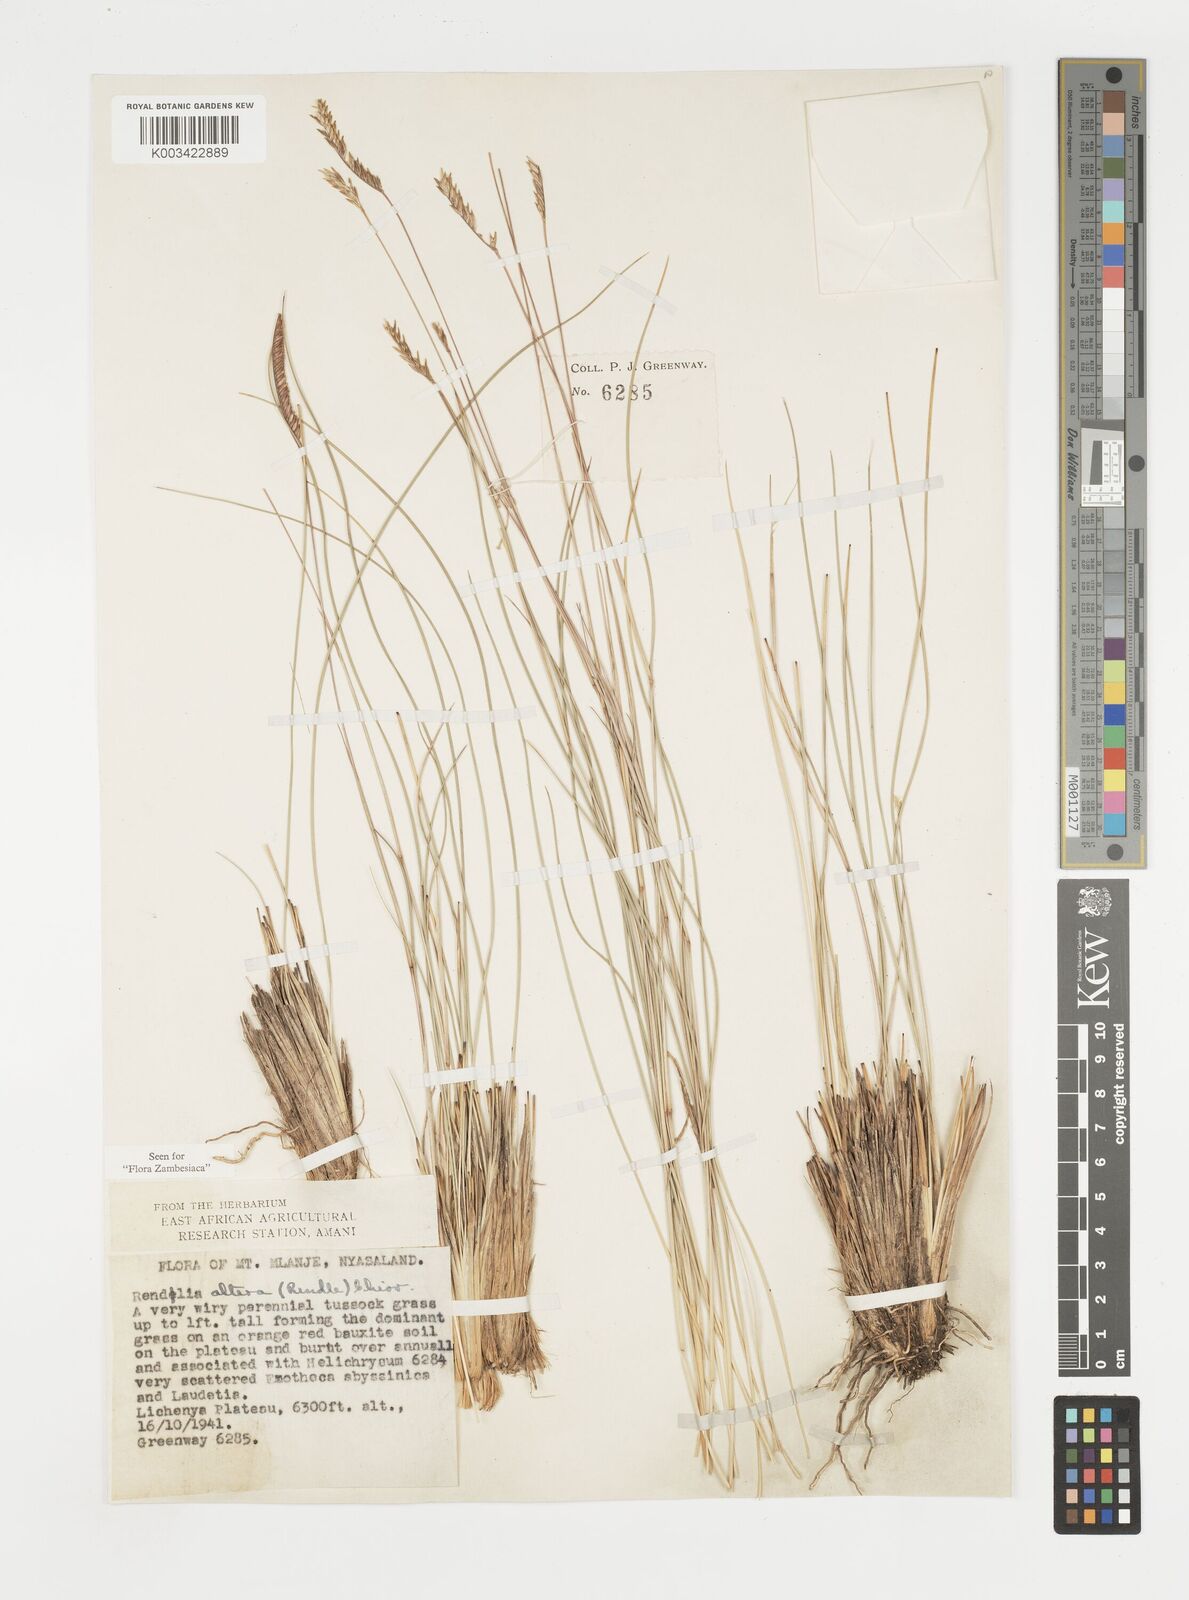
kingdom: Plantae
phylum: Tracheophyta
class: Liliopsida
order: Poales
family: Poaceae
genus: Microchloa
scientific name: Microchloa altera
